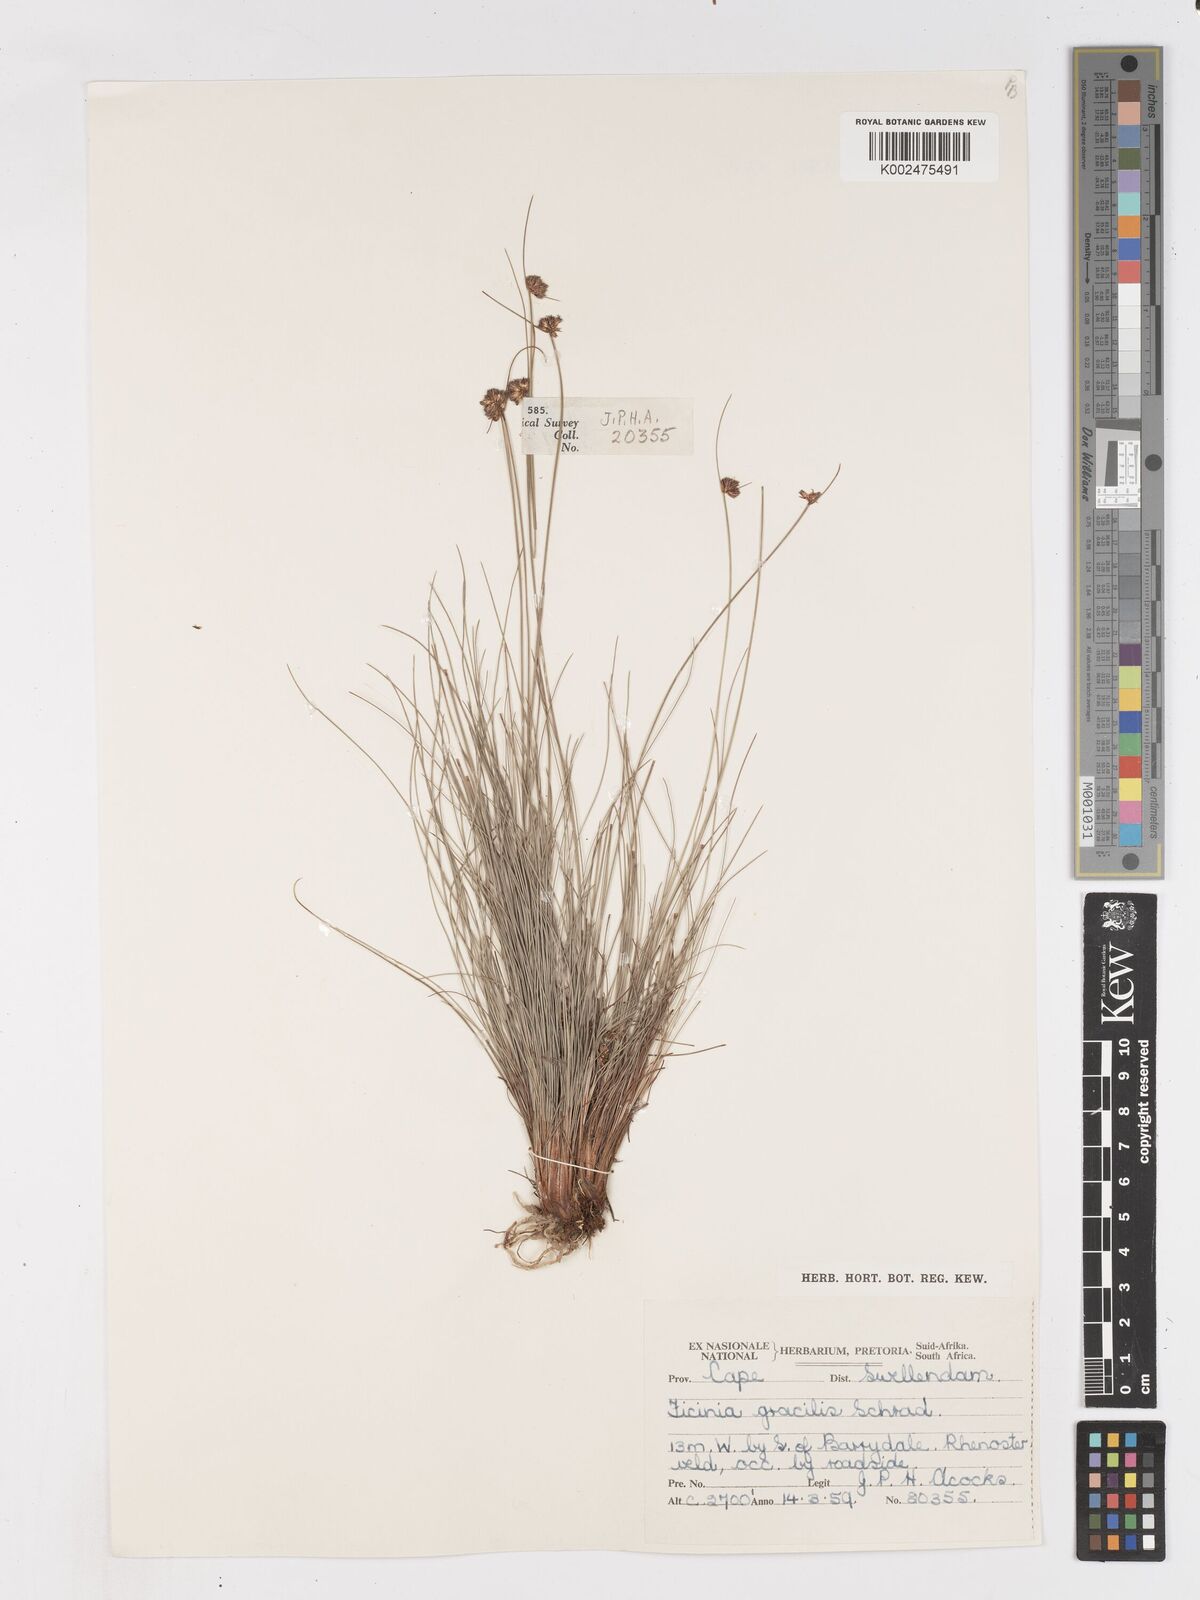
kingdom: Plantae
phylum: Tracheophyta
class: Liliopsida
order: Poales
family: Cyperaceae
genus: Ficinia
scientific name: Ficinia gracilis
